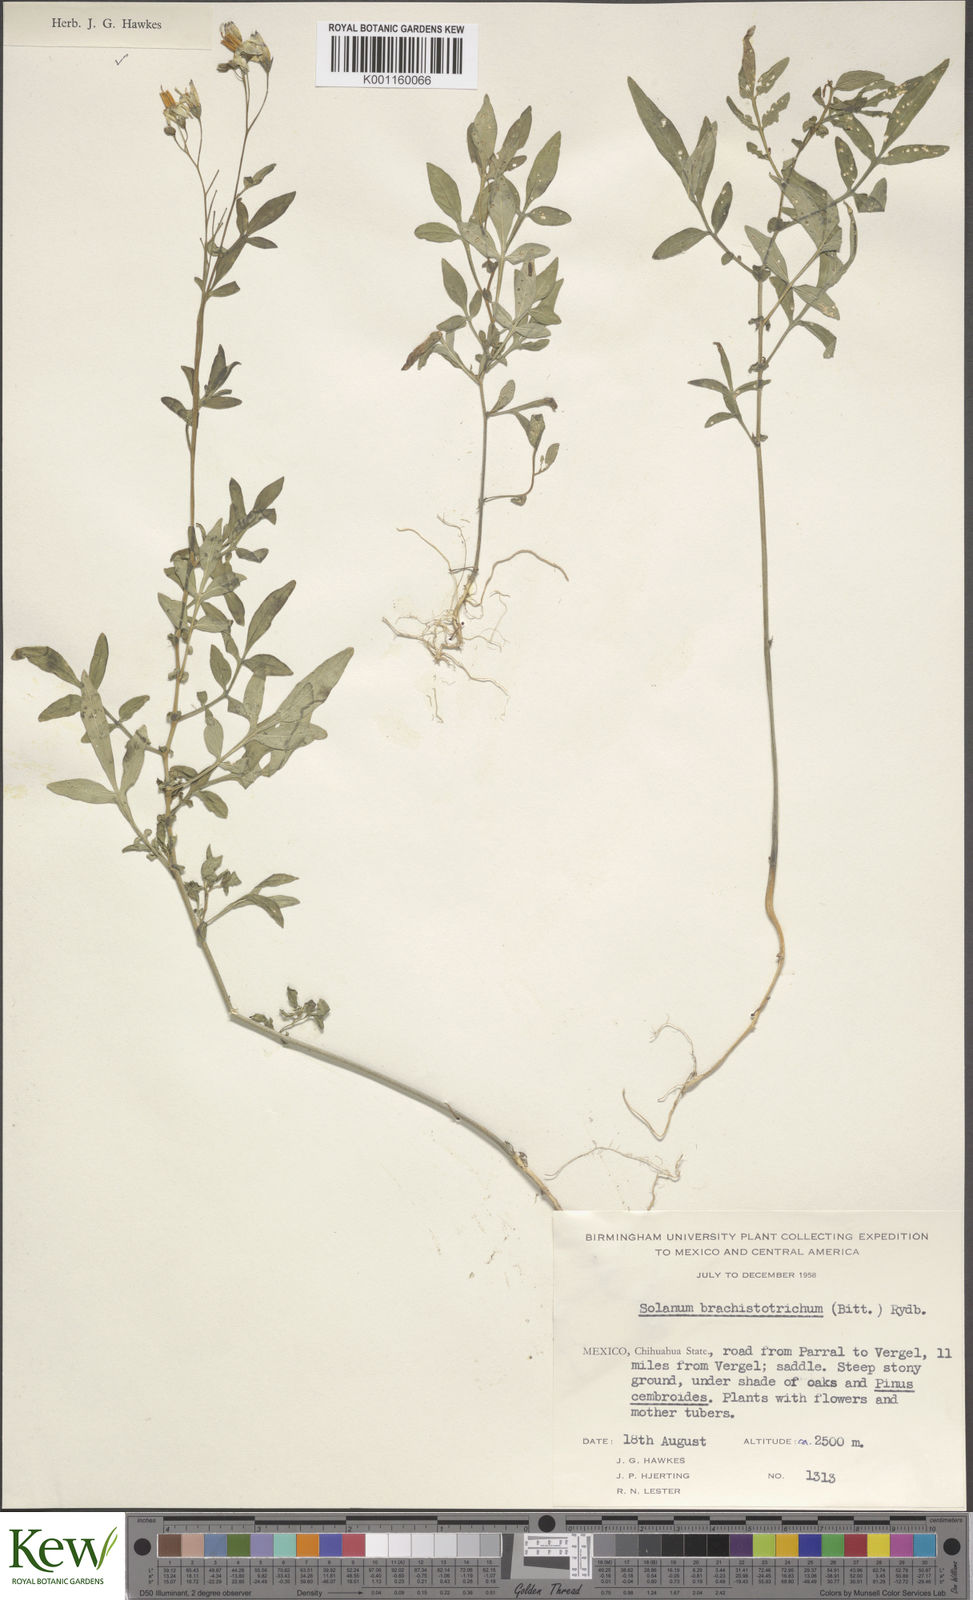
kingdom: Plantae
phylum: Tracheophyta
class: Magnoliopsida
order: Solanales
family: Solanaceae
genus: Solanum
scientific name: Solanum
